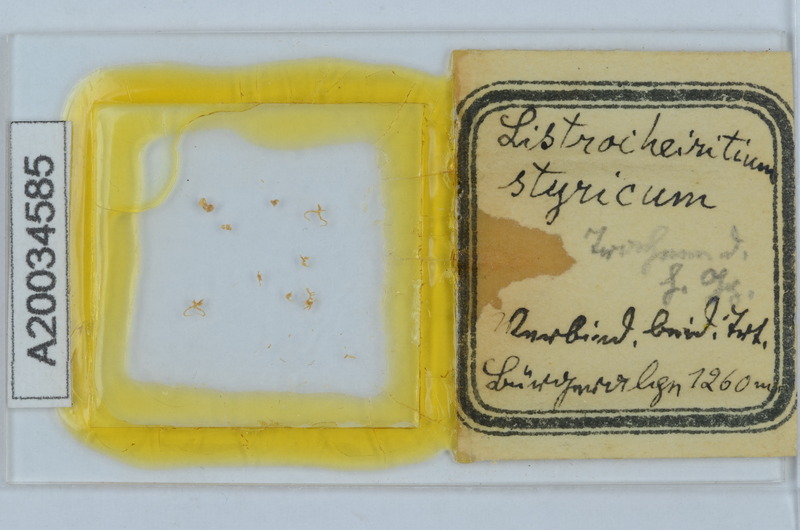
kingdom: Animalia
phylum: Arthropoda
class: Diplopoda
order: Chordeumatida
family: Craspedosomatidae
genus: Listrocheiritium
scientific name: Listrocheiritium styricum
